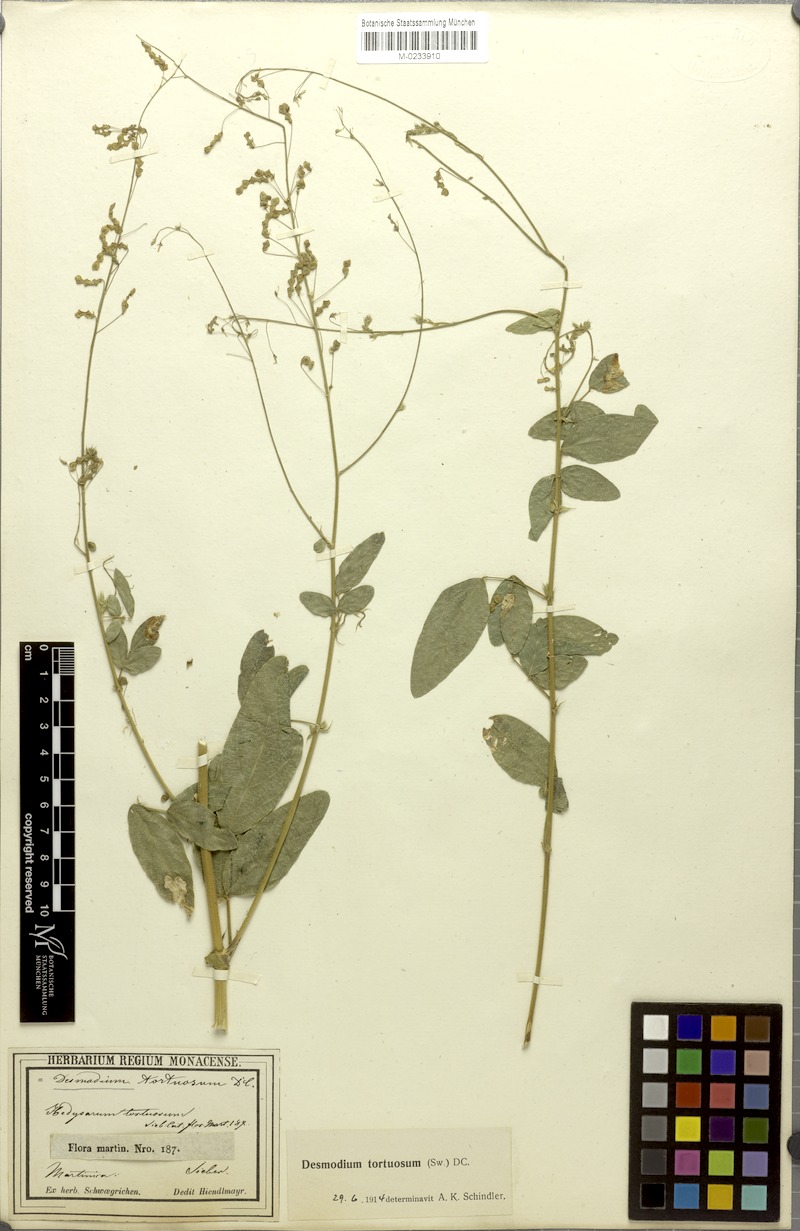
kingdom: Plantae
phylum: Tracheophyta
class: Magnoliopsida
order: Fabales
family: Fabaceae
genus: Desmodium
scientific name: Desmodium tortuosum
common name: Dixie ticktrefoil
